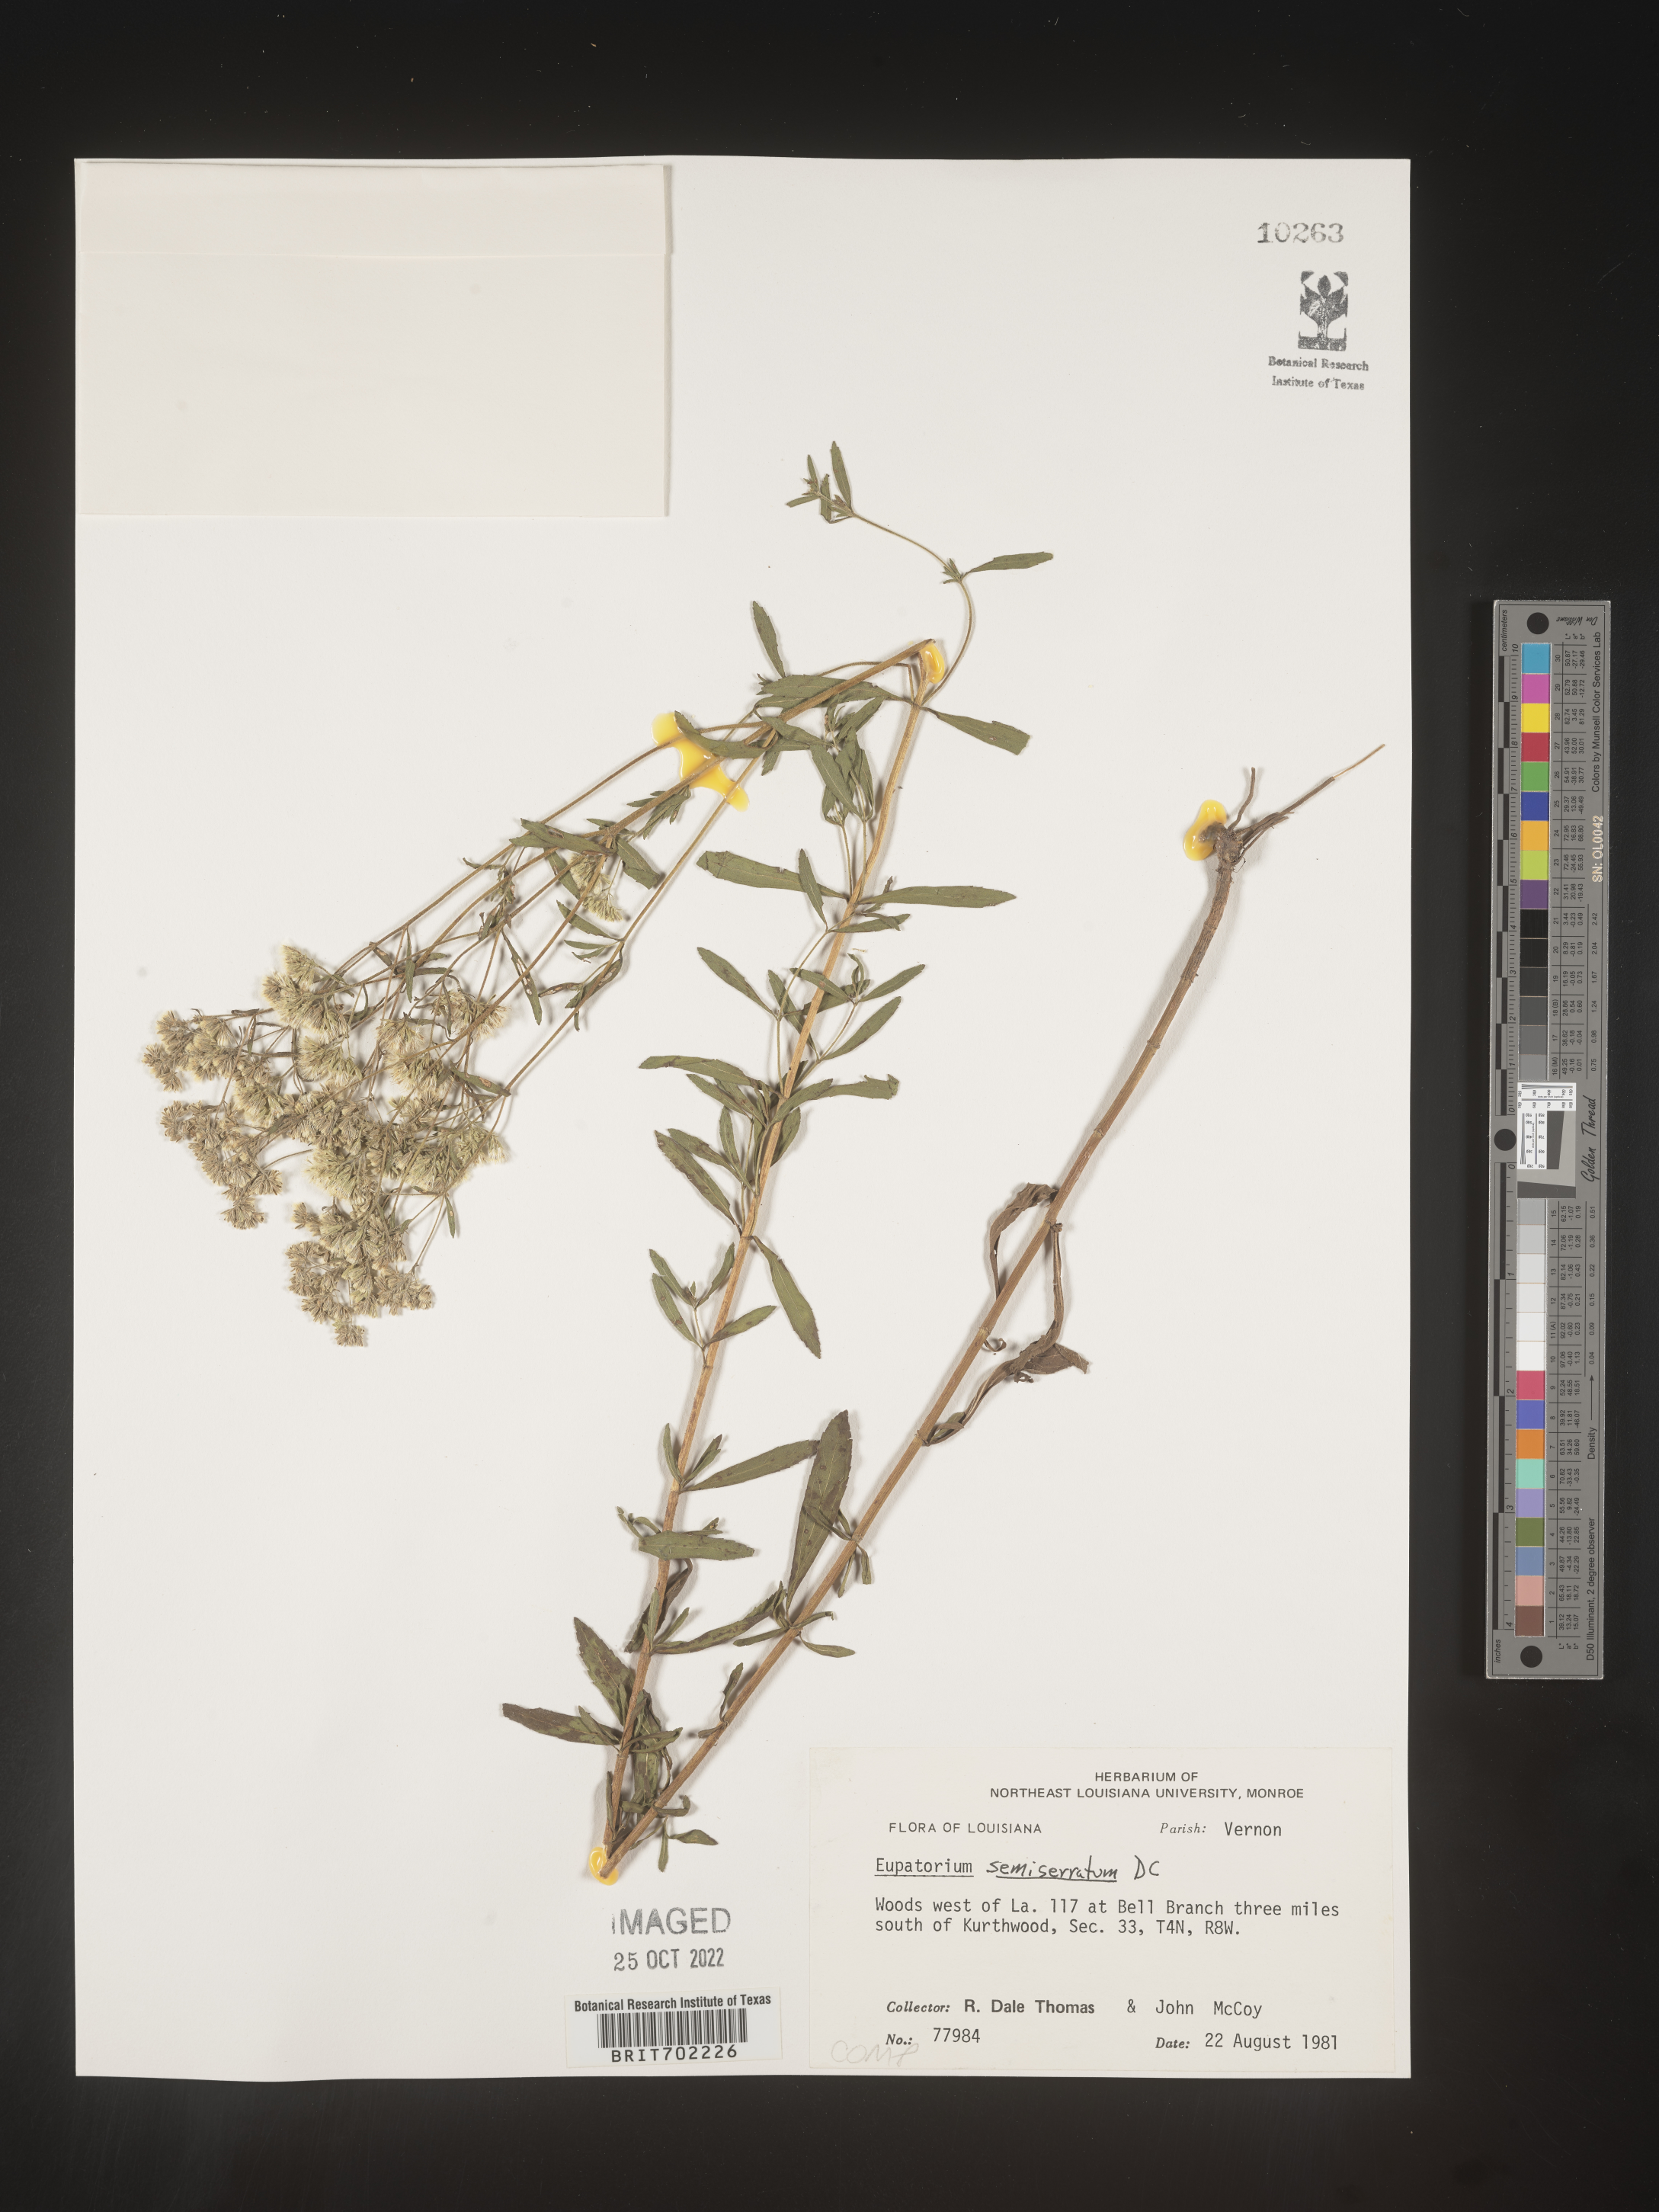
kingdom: Plantae
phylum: Tracheophyta
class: Magnoliopsida
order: Asterales
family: Asteraceae
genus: Eupatorium
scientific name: Eupatorium semiserratum
